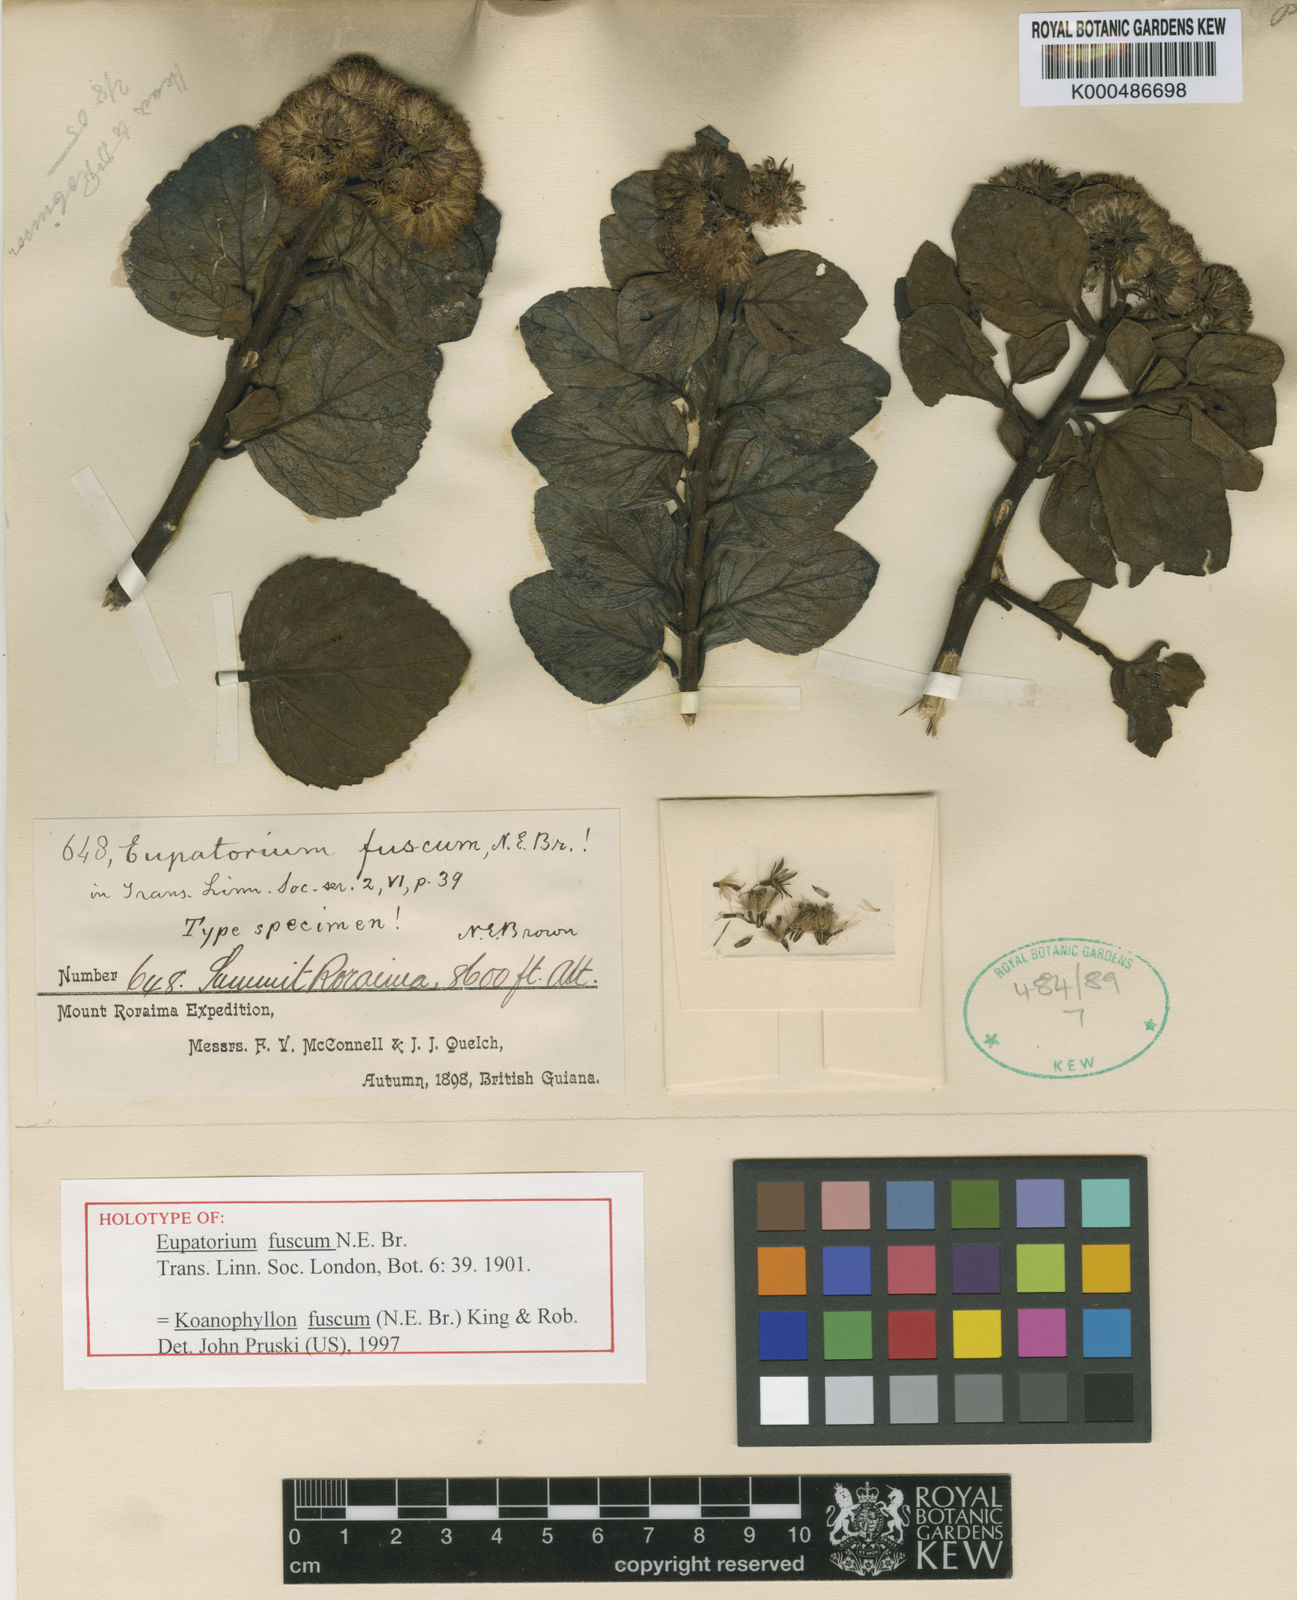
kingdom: Plantae
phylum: Tracheophyta
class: Magnoliopsida
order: Asterales
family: Asteraceae
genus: Koanophyllon
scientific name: Koanophyllon fuscum
